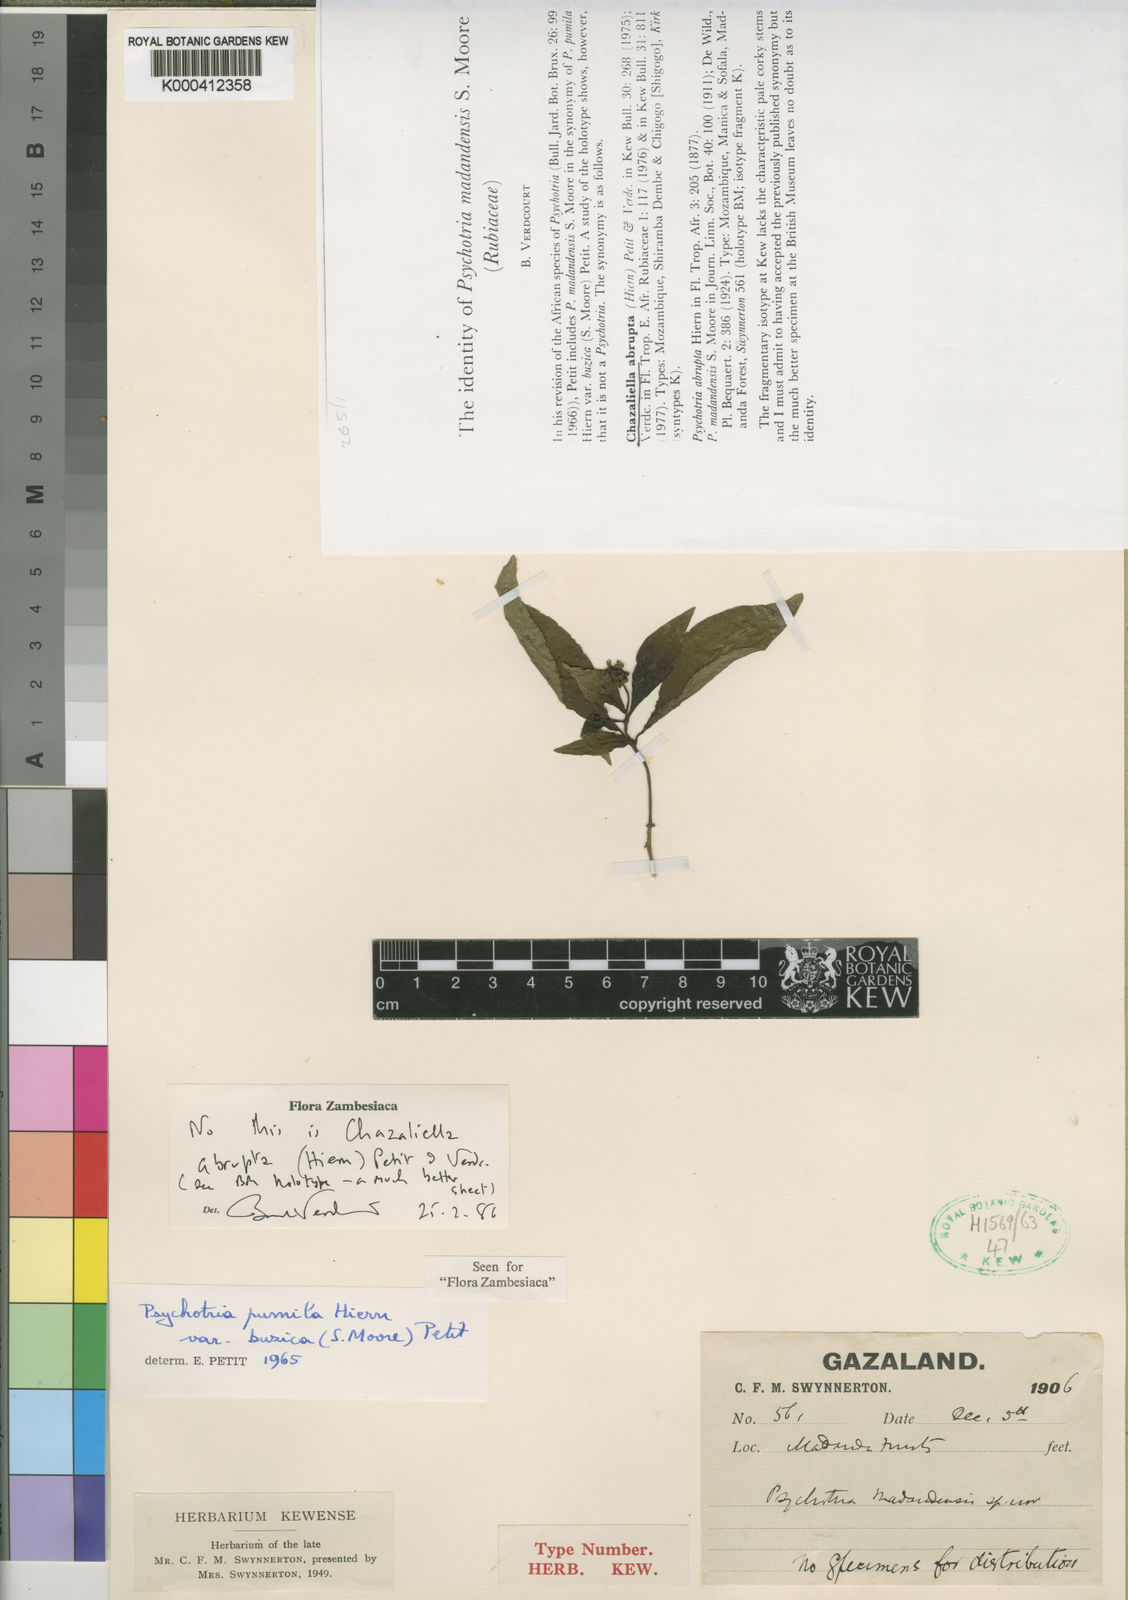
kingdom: Plantae
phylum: Tracheophyta
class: Magnoliopsida
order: Gentianales
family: Rubiaceae
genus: Eumachia
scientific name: Eumachia abrupta
